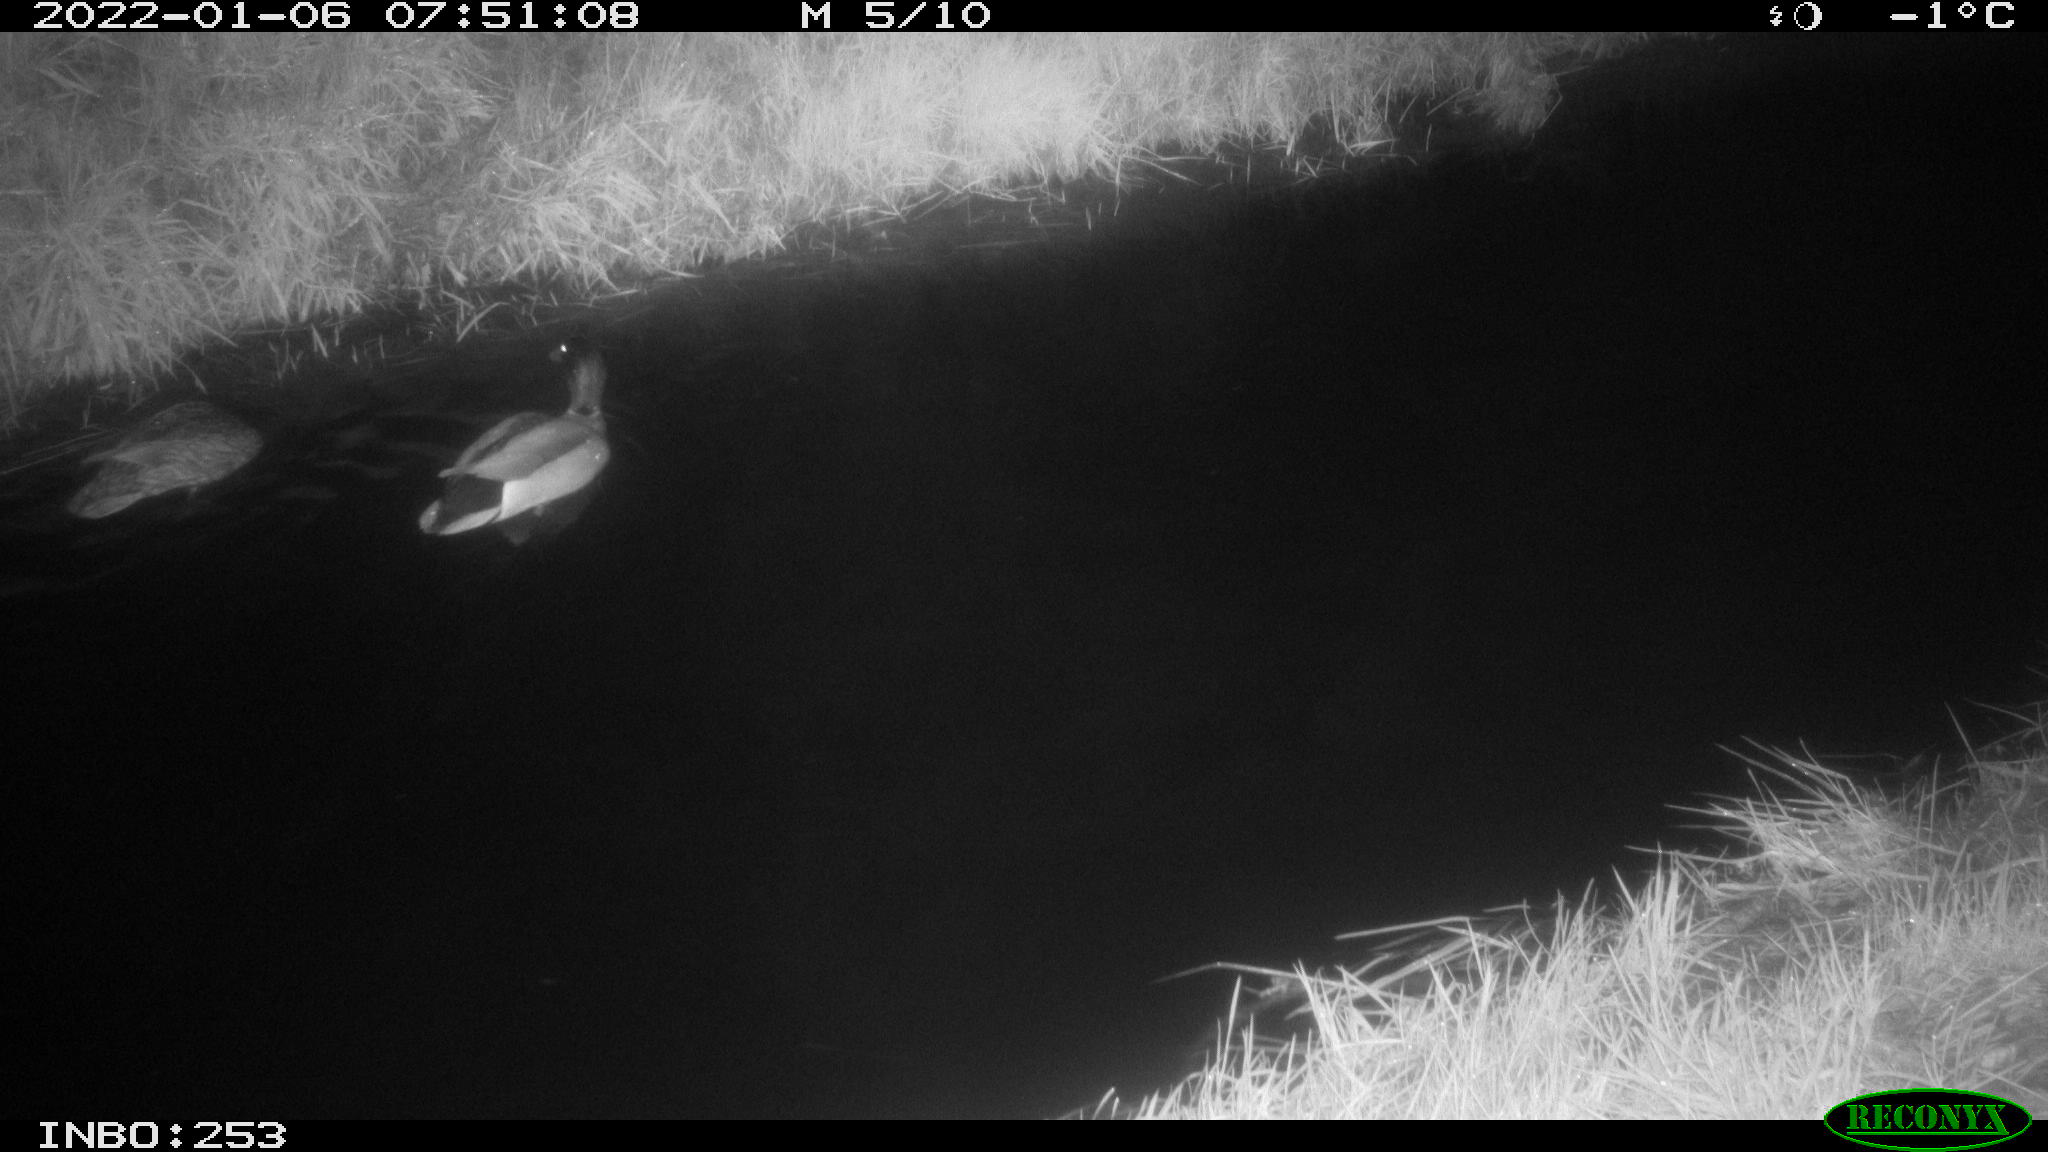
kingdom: Animalia
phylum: Chordata
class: Aves
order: Anseriformes
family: Anatidae
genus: Anas
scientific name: Anas
